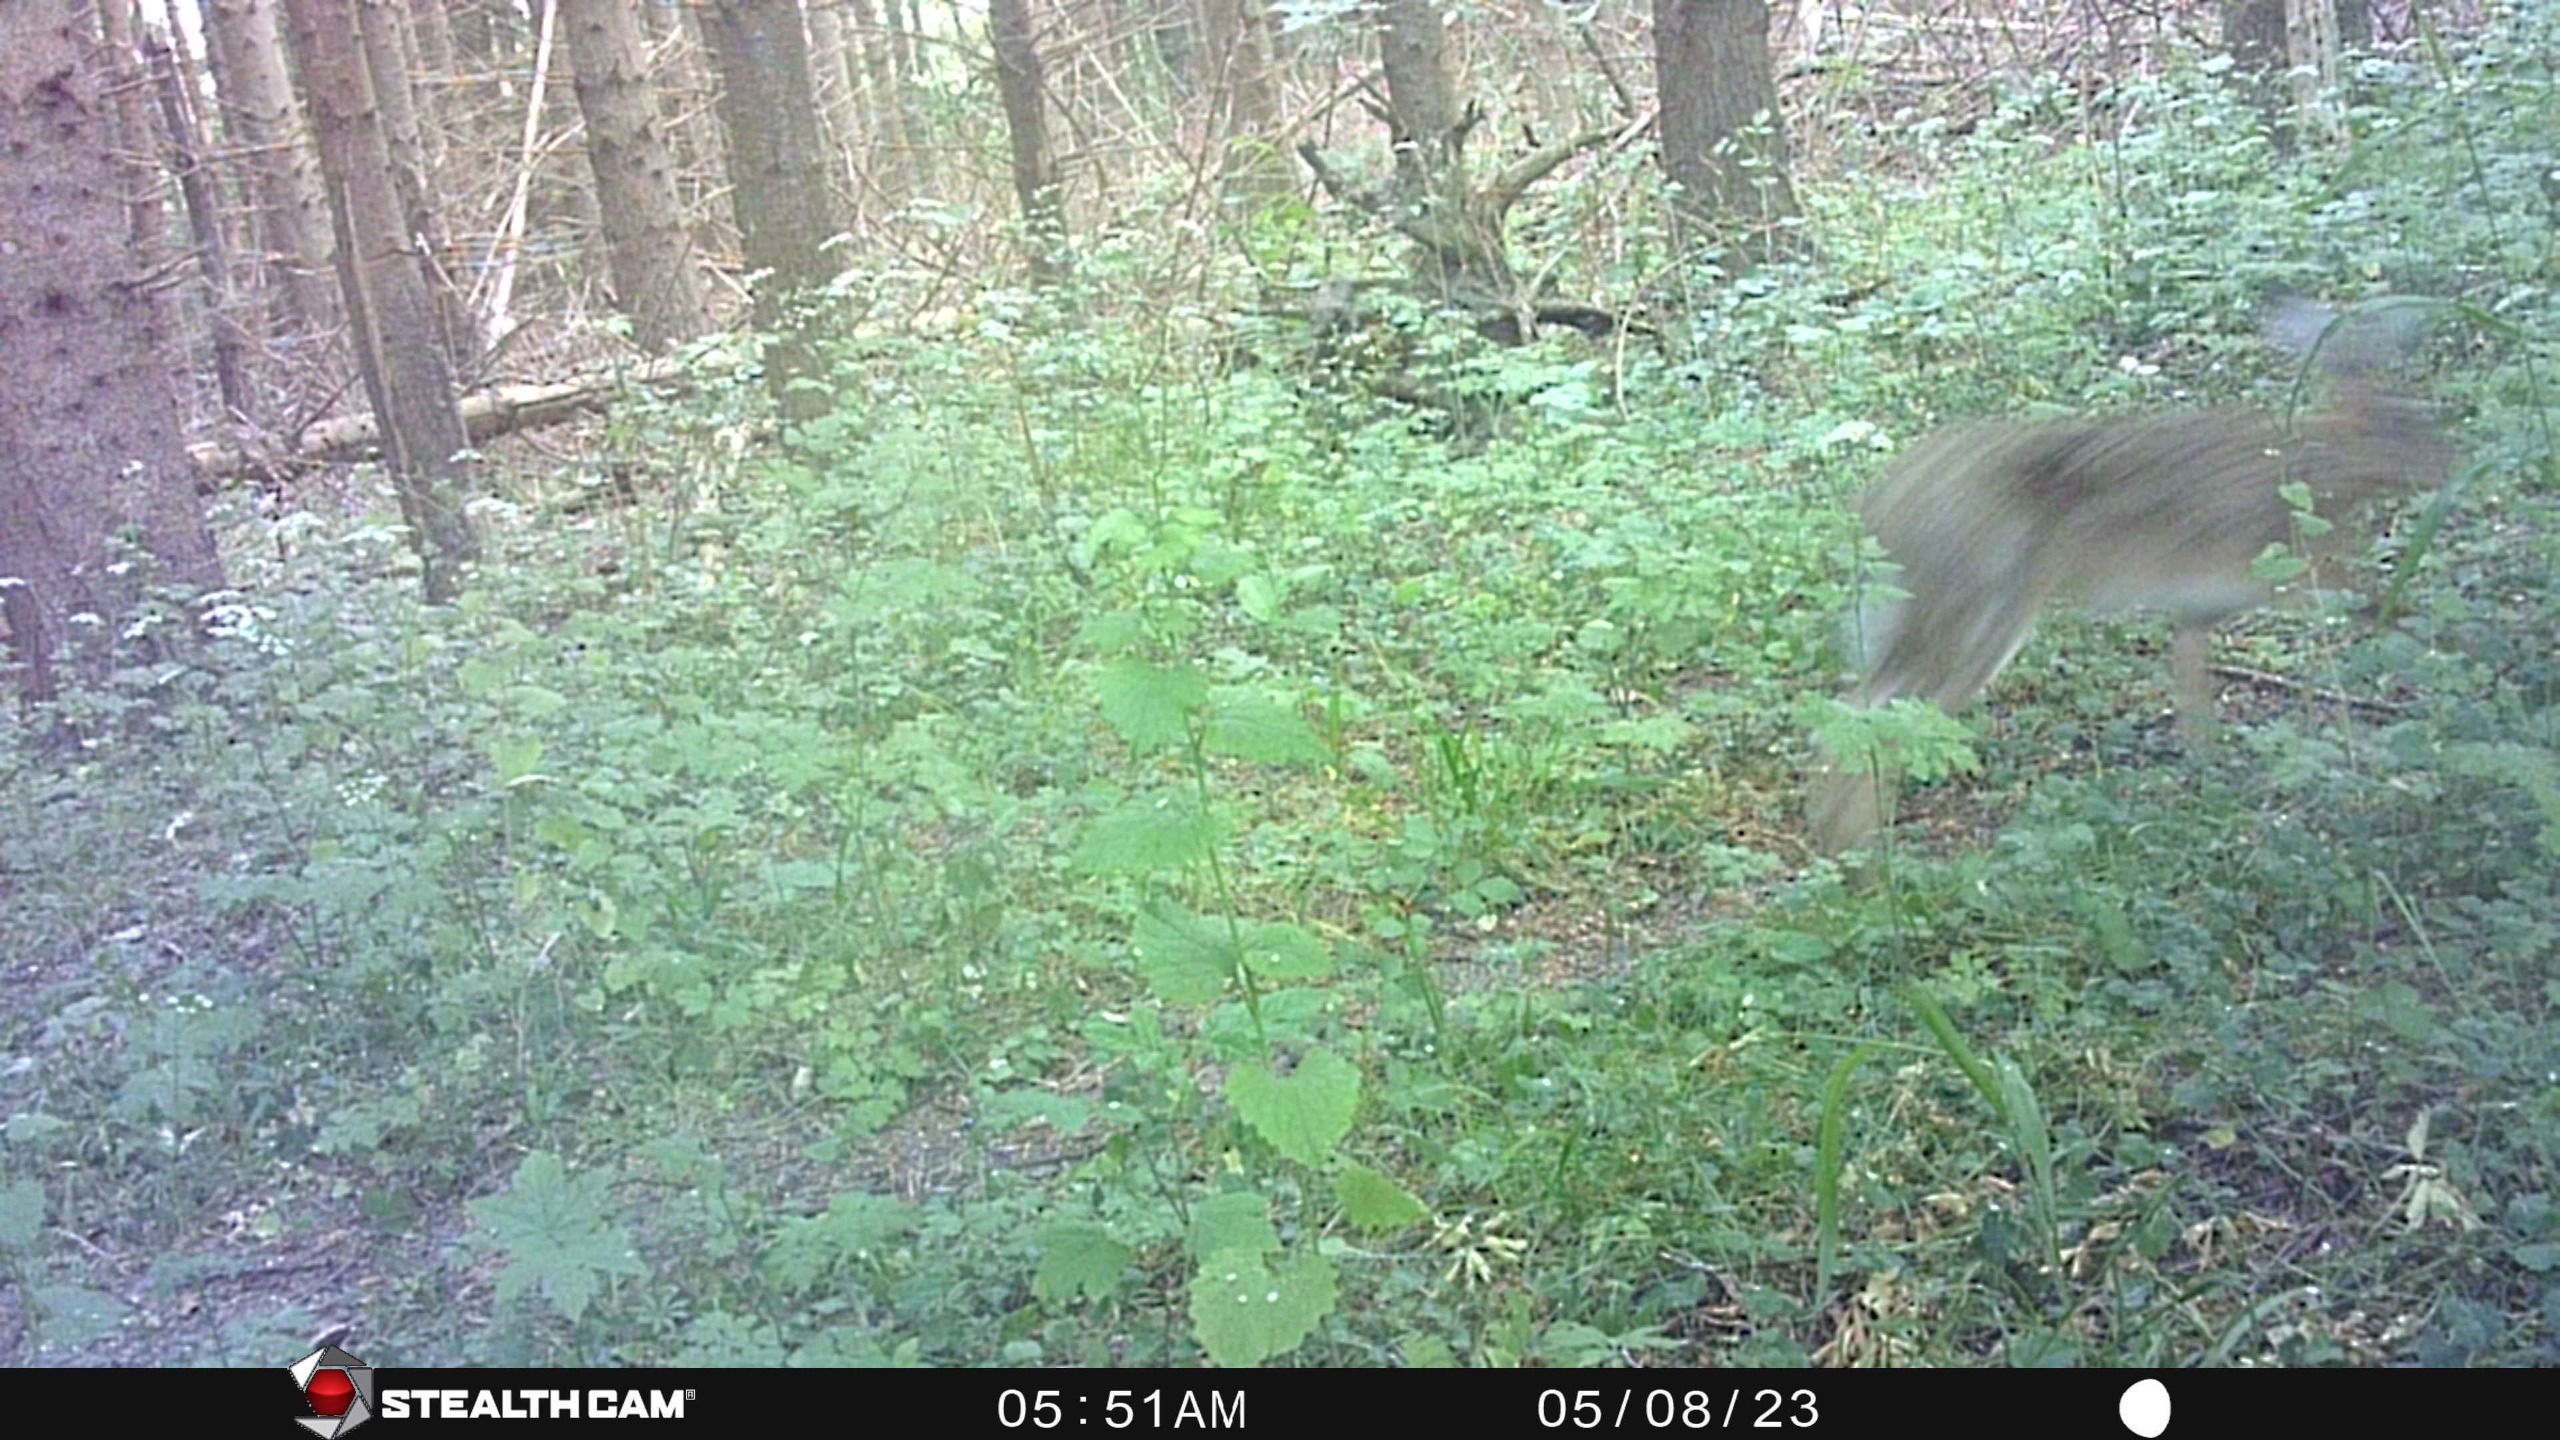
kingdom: Animalia
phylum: Chordata
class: Mammalia
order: Lagomorpha
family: Leporidae
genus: Lepus
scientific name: Lepus europaeus
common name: Hare
